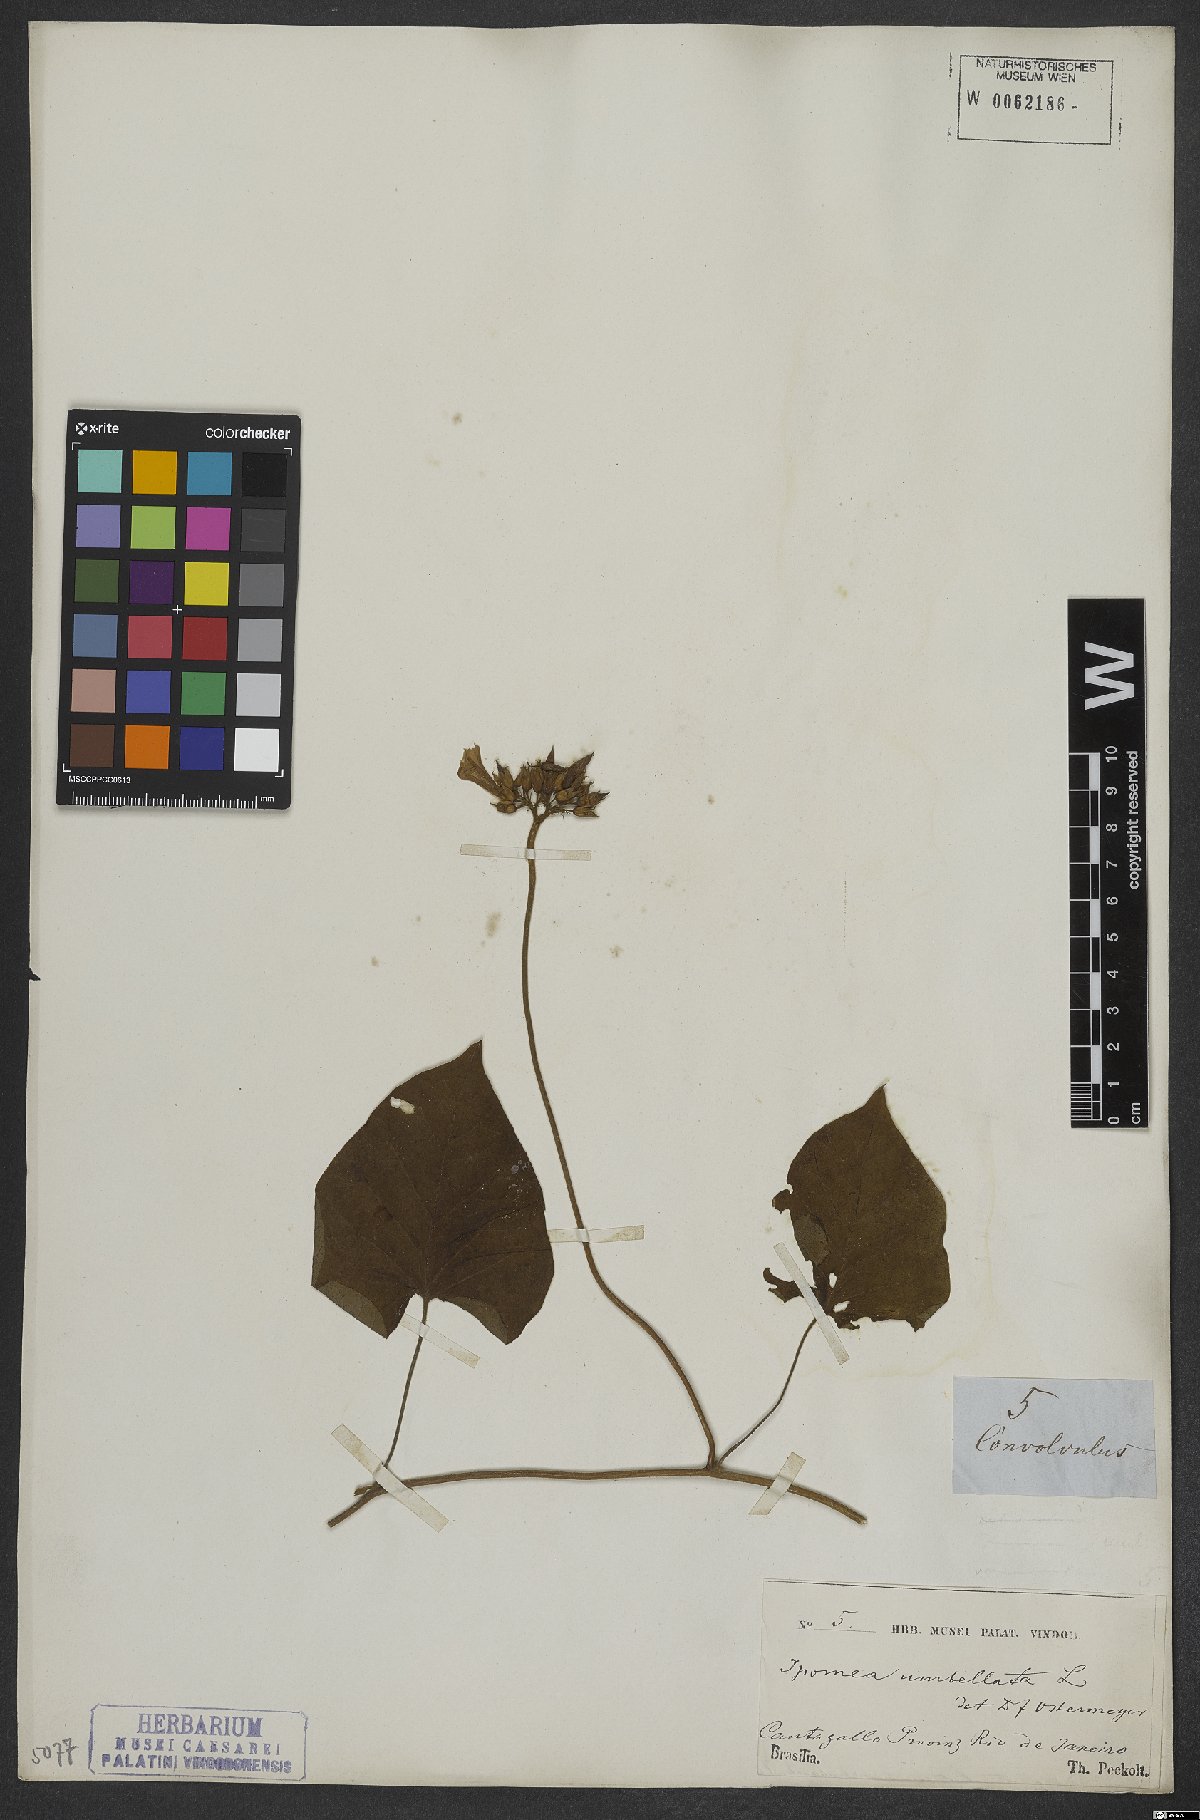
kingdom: Plantae
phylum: Tracheophyta
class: Magnoliopsida
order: Solanales
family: Convolvulaceae
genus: Ipomoea
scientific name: Ipomoea carolina
